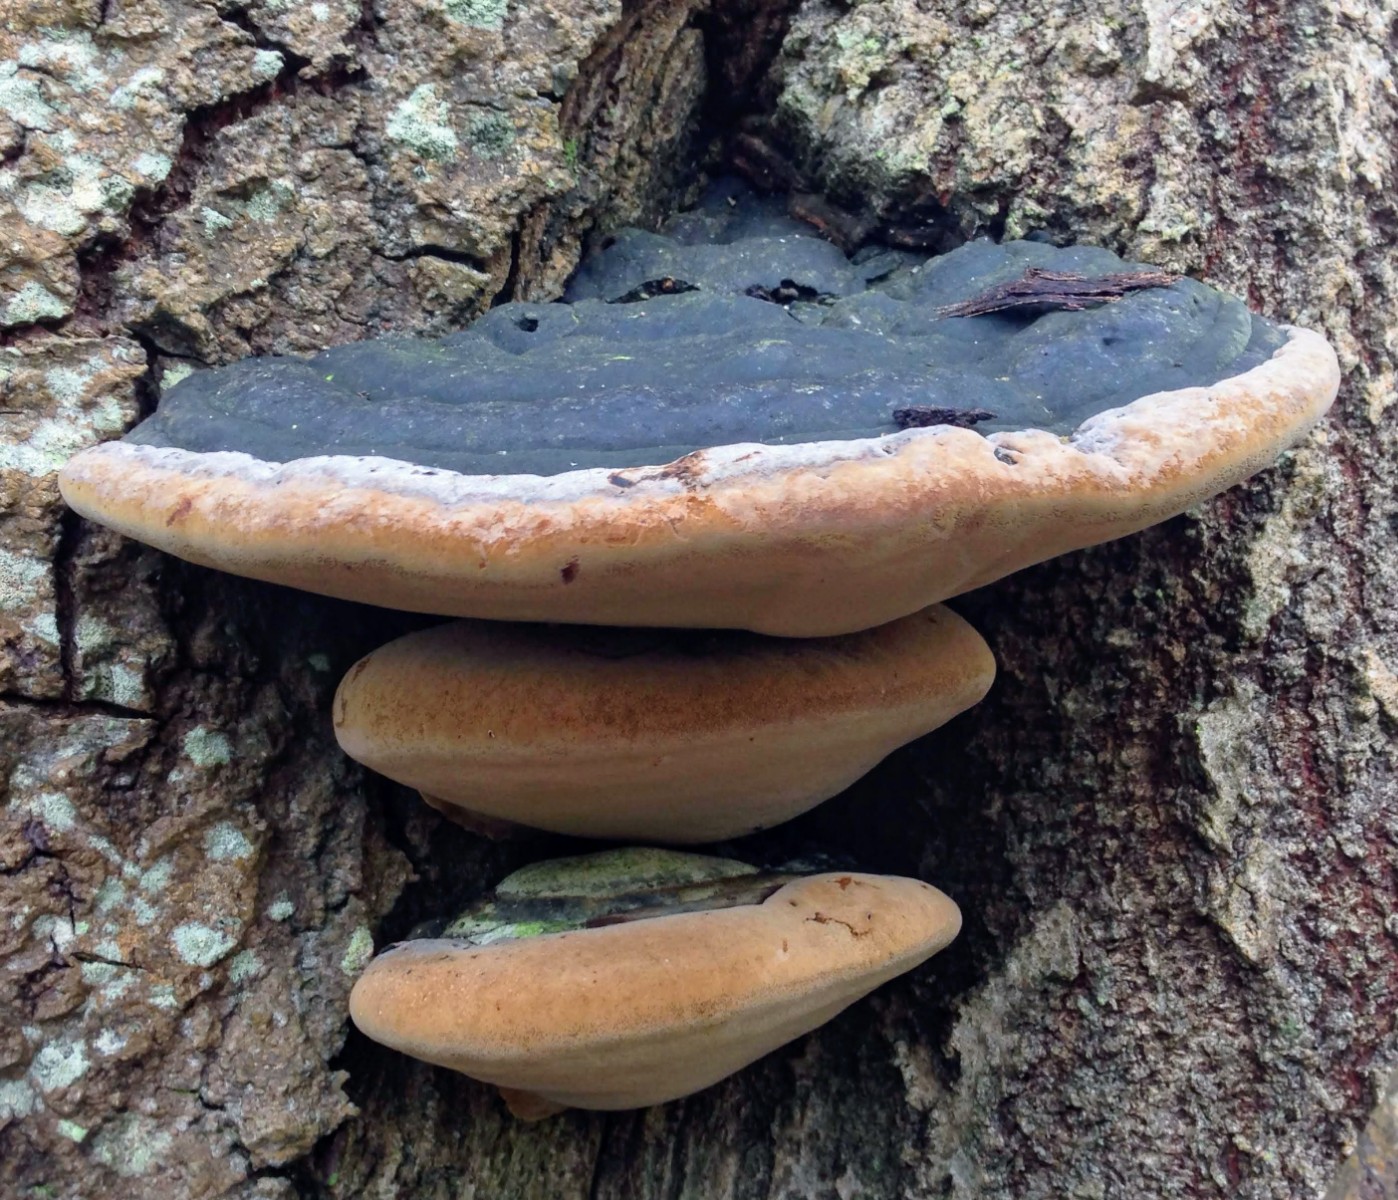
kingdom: Fungi
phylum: Basidiomycota
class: Agaricomycetes
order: Hymenochaetales
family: Hymenochaetaceae
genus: Phellinus
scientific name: Phellinus populicola
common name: poppel-ildporesvamp
